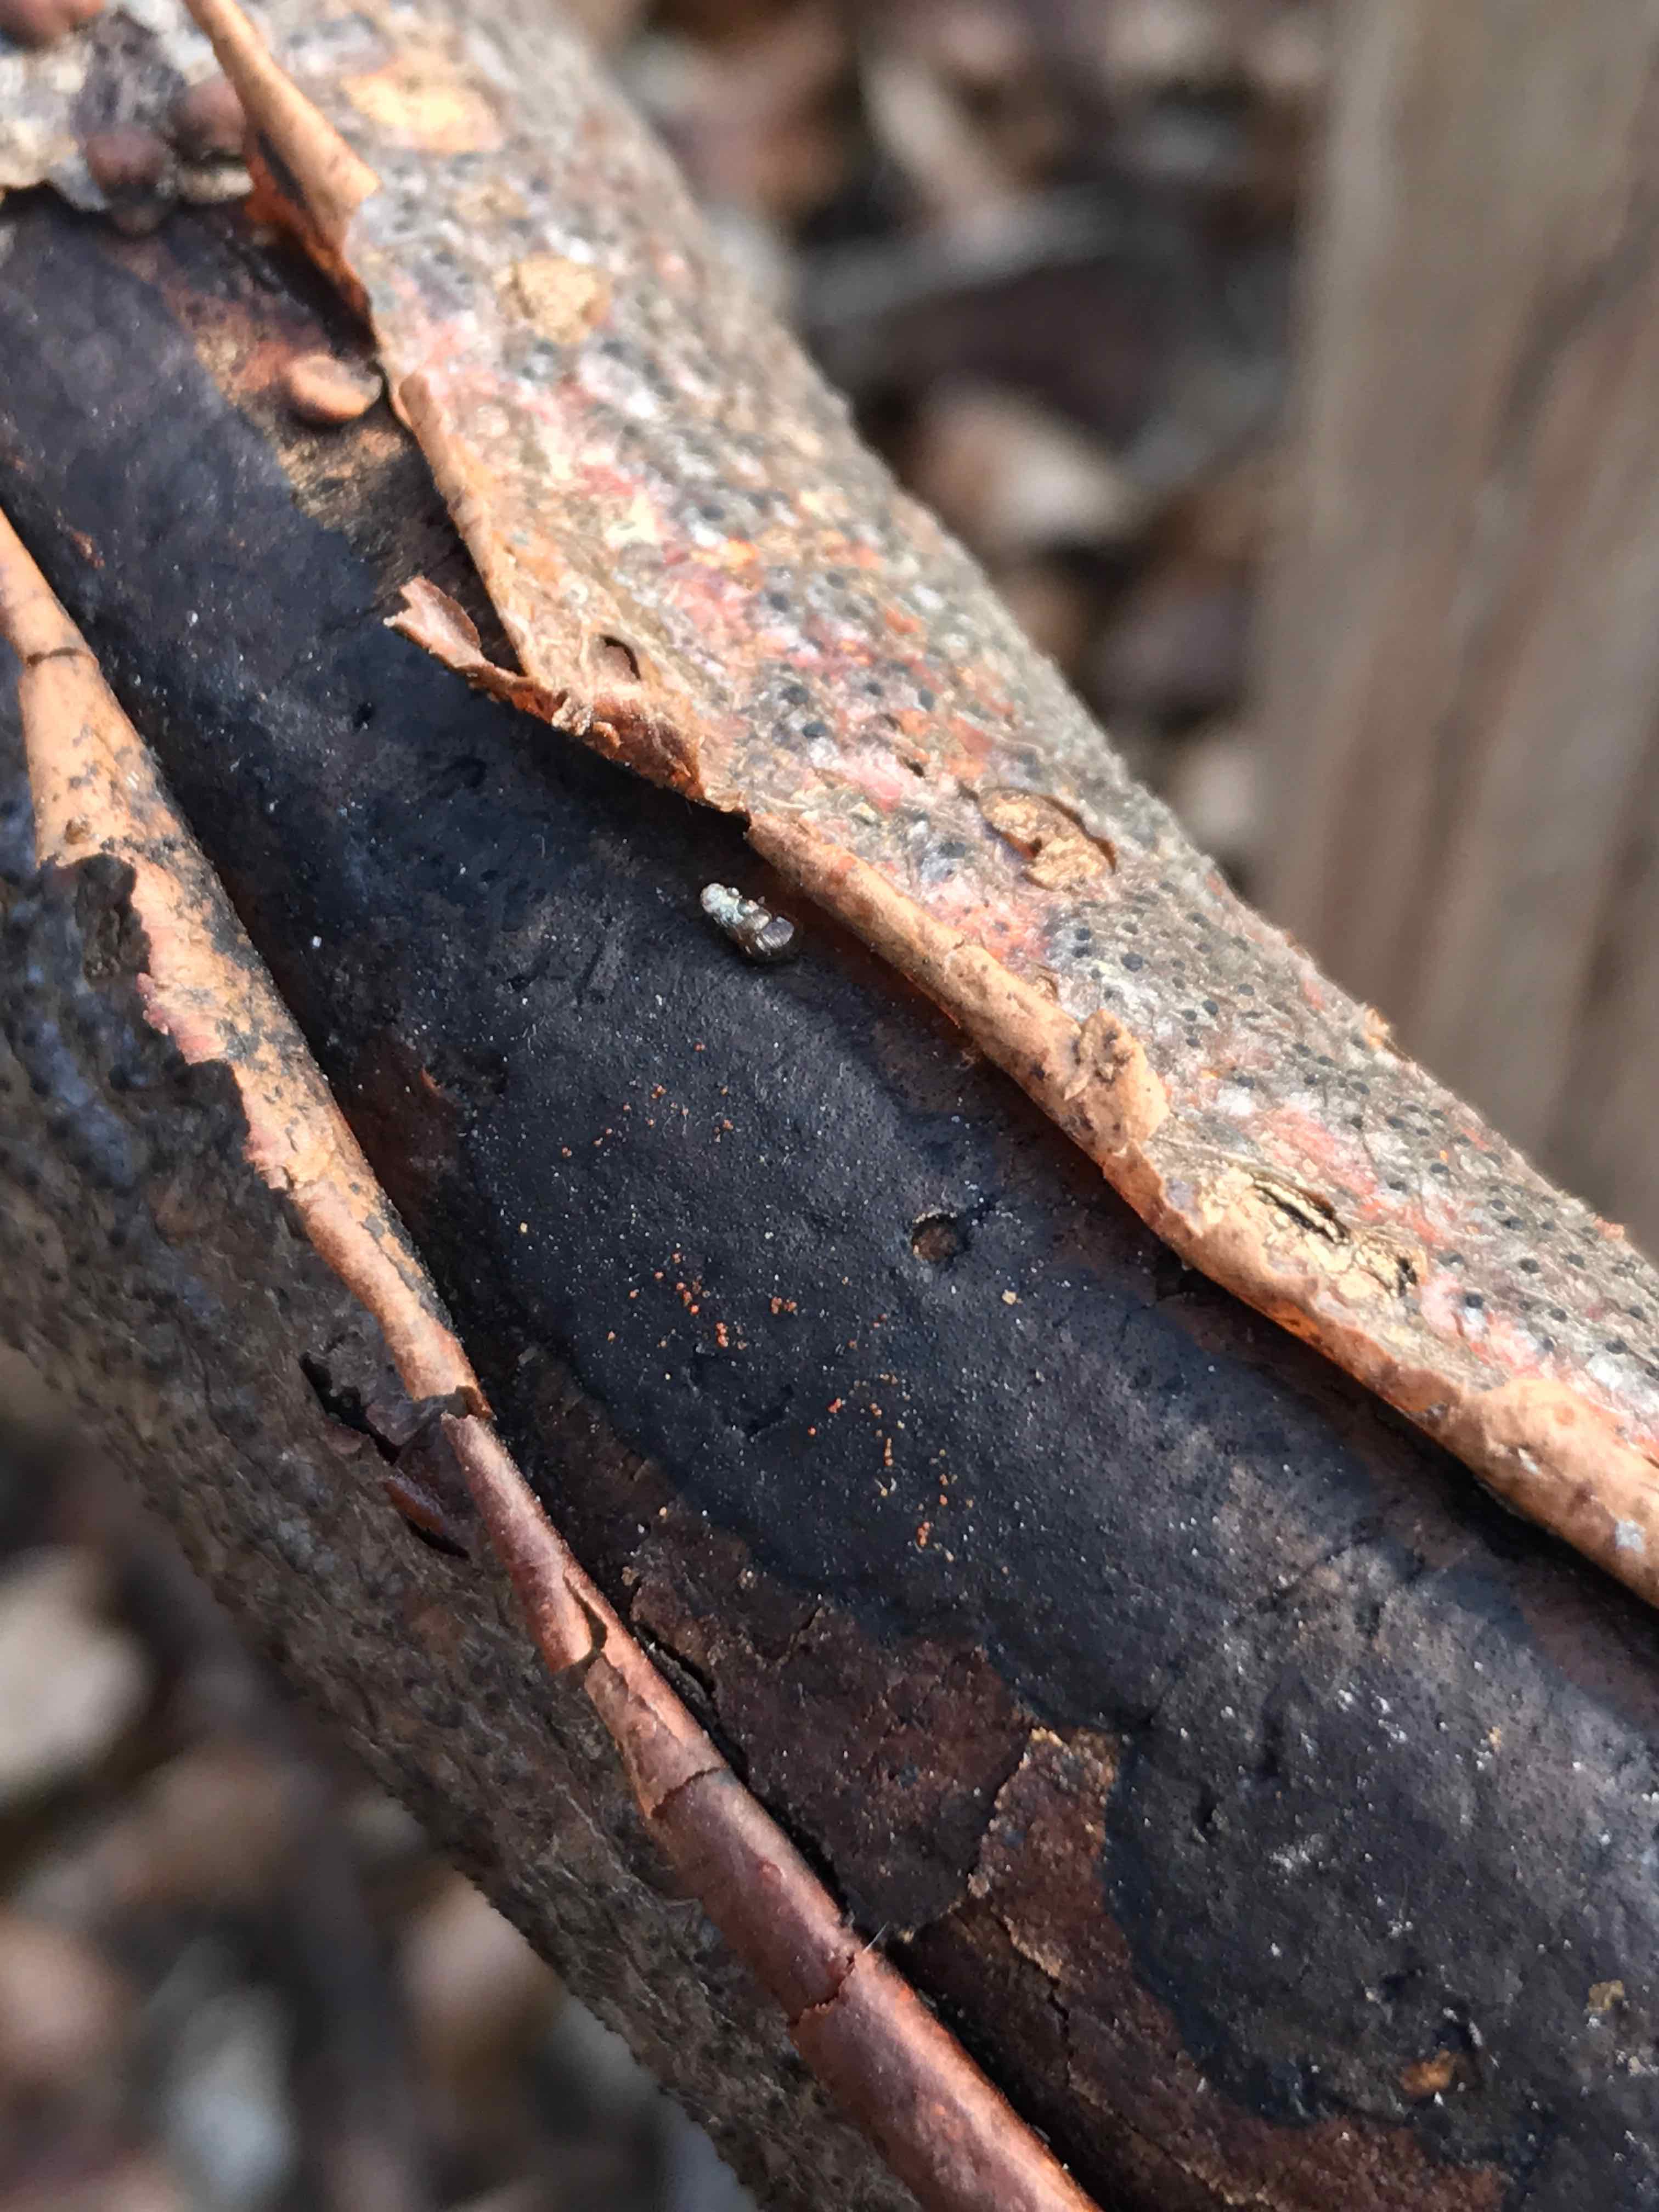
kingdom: Fungi
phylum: Ascomycota
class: Sordariomycetes
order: Xylariales
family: Diatrypaceae
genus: Diatrype
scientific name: Diatrype decorticata
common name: barksprænger-kulskorpe
